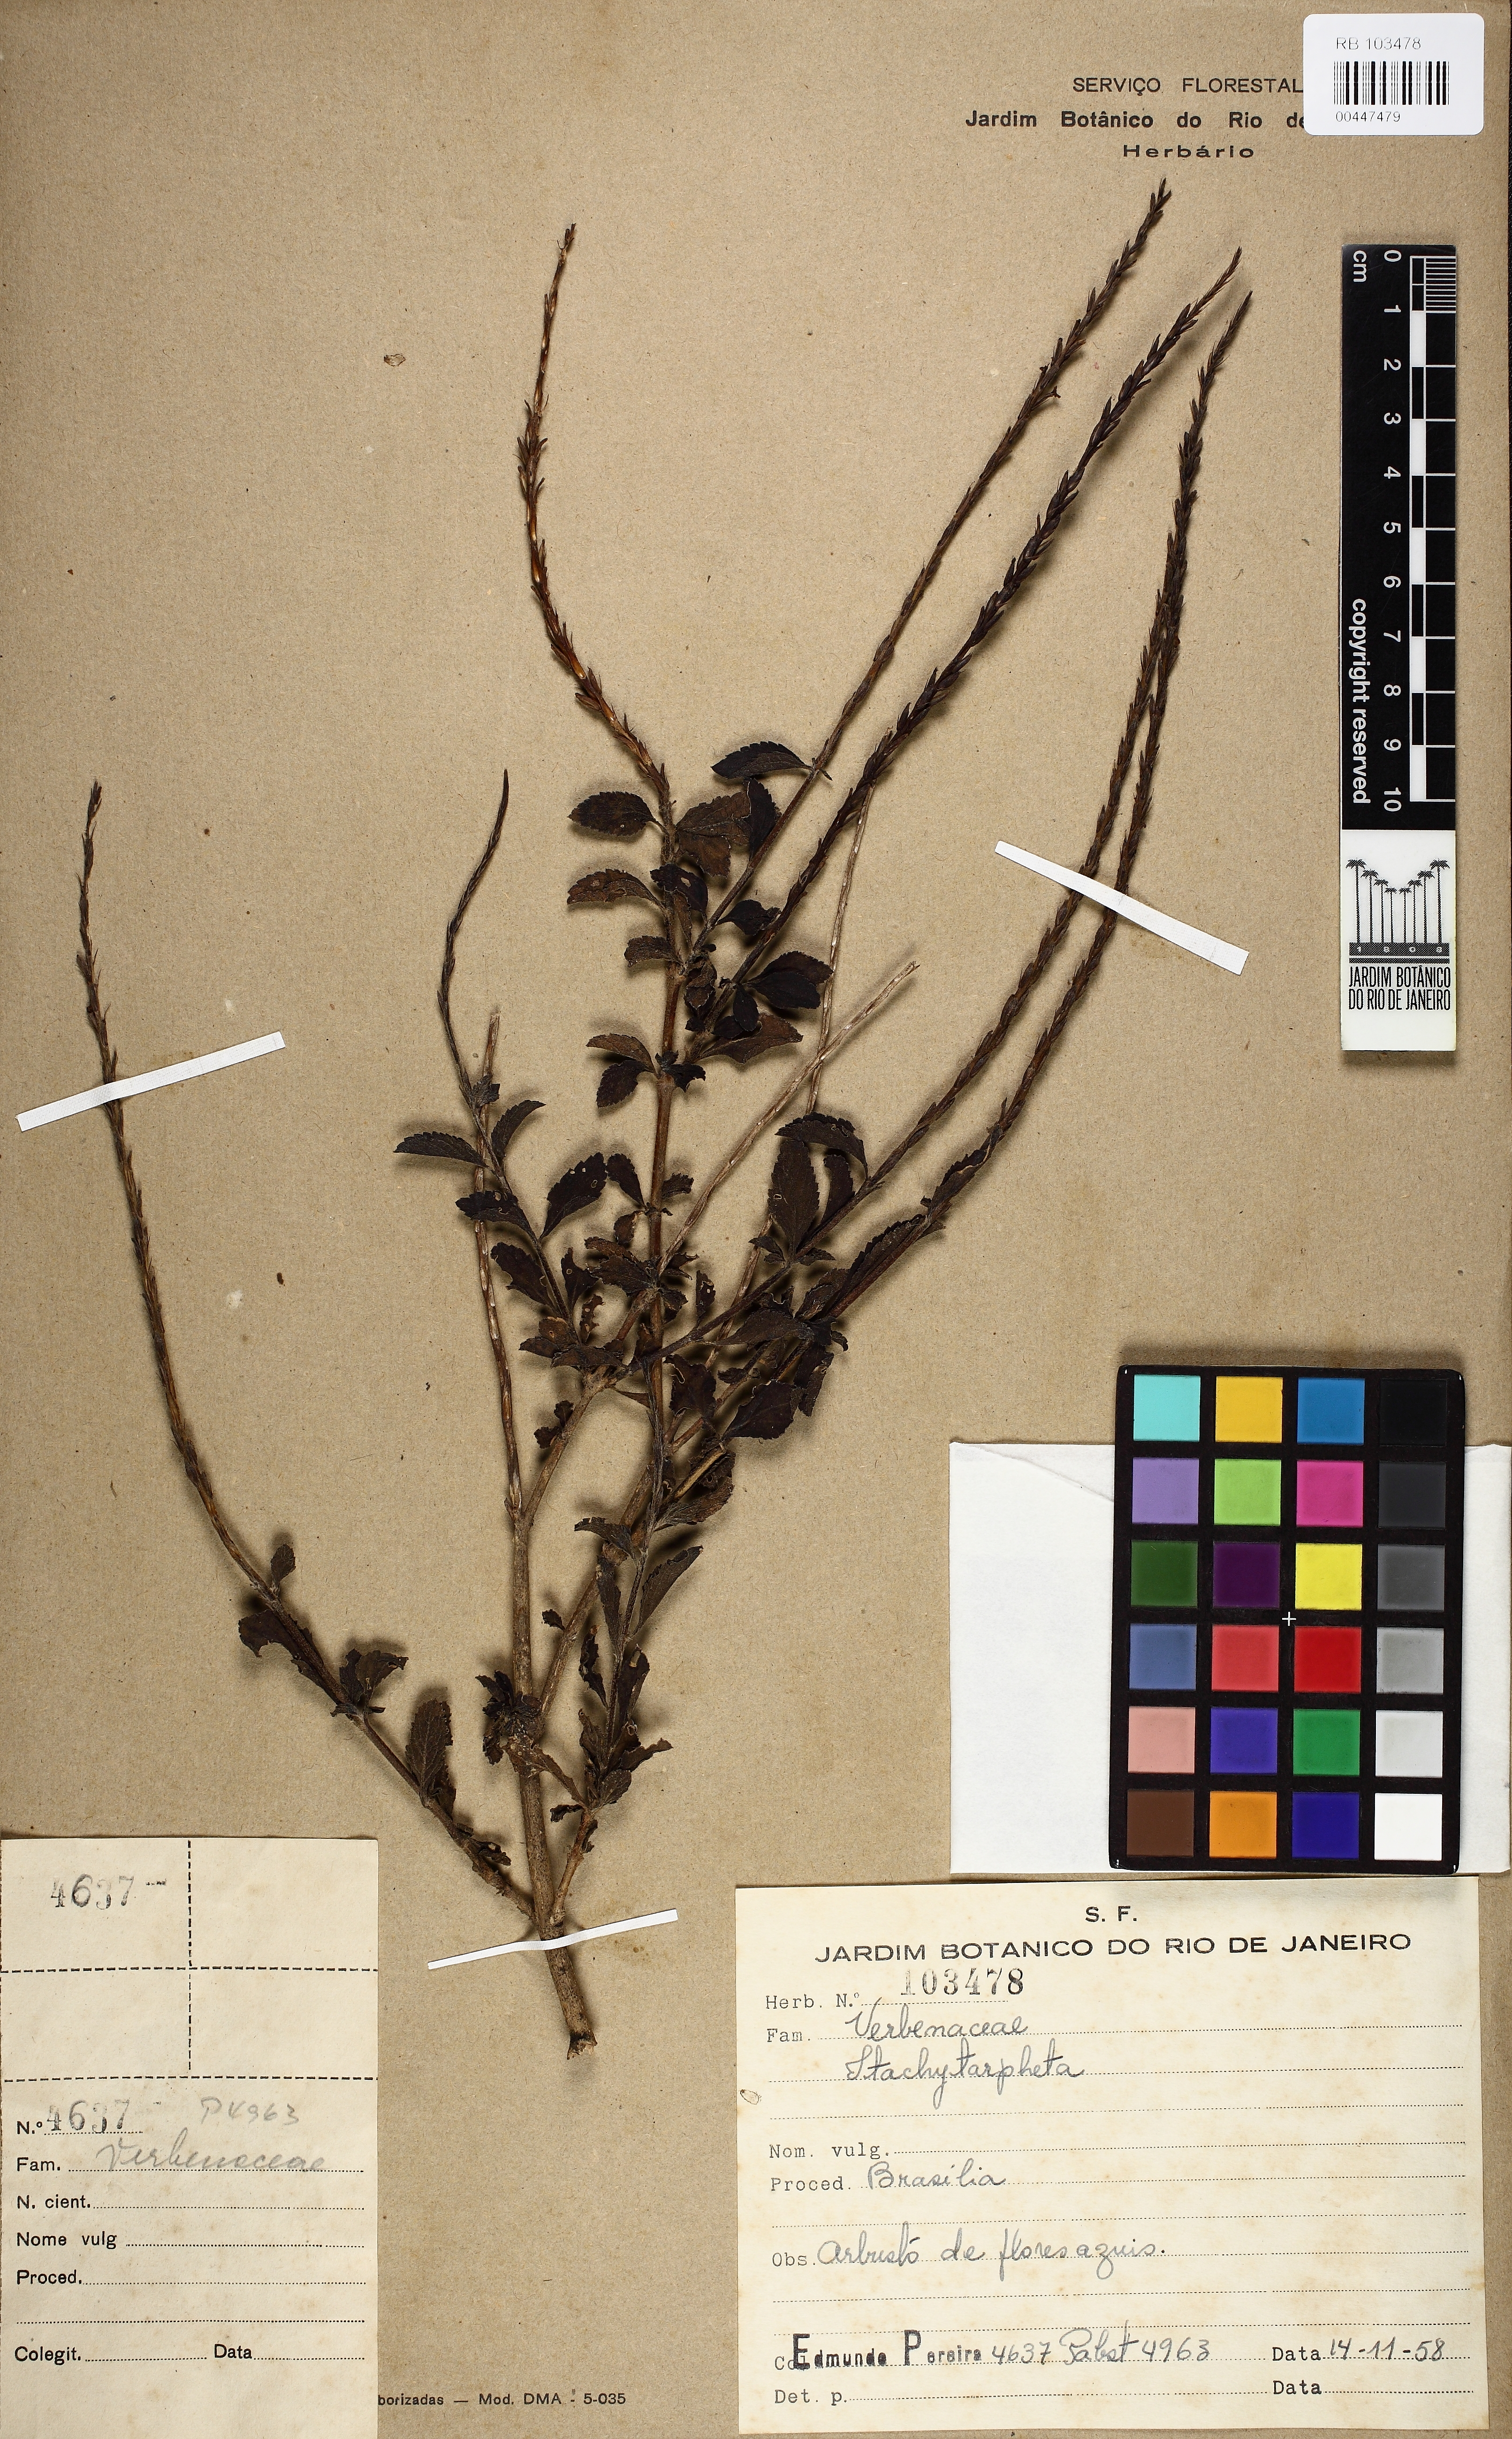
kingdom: Plantae
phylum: Tracheophyta
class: Magnoliopsida
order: Lamiales
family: Verbenaceae
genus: Stachytarpheta
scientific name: Stachytarpheta
